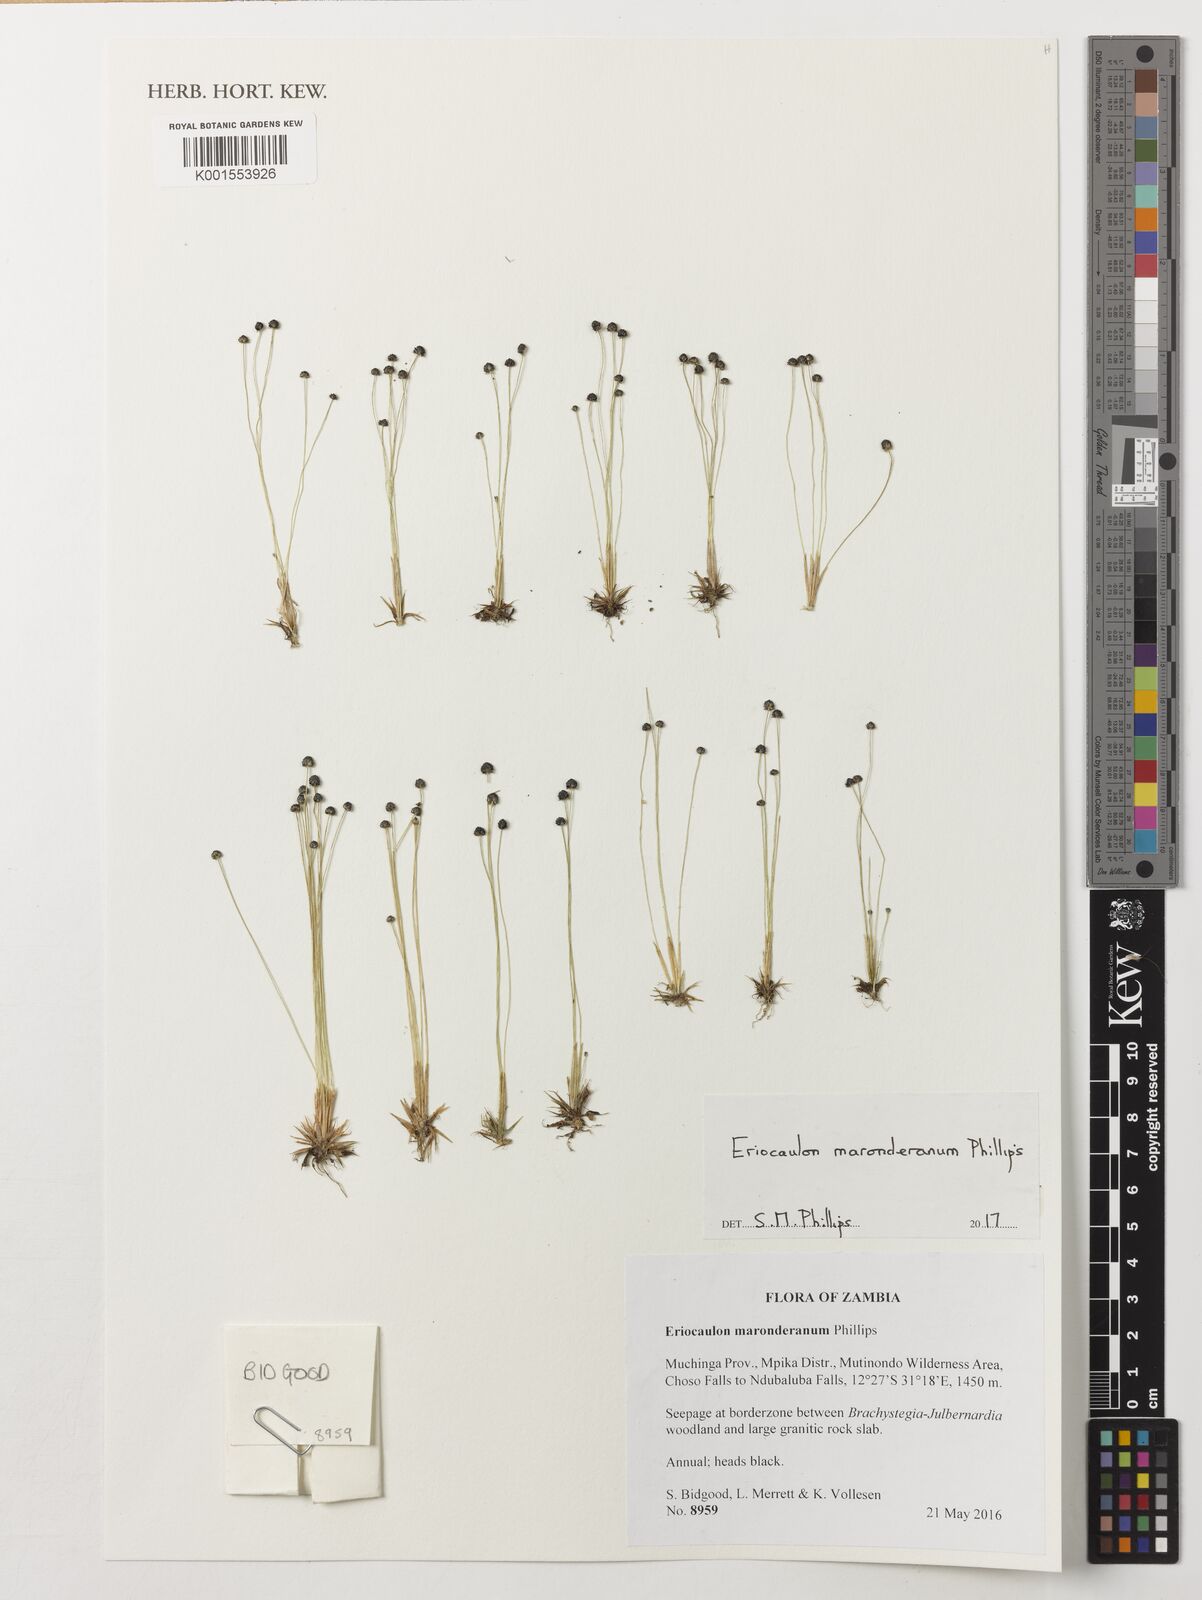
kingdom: Plantae
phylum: Tracheophyta
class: Liliopsida
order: Poales
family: Eriocaulaceae
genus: Eriocaulon
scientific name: Eriocaulon maronderanum
